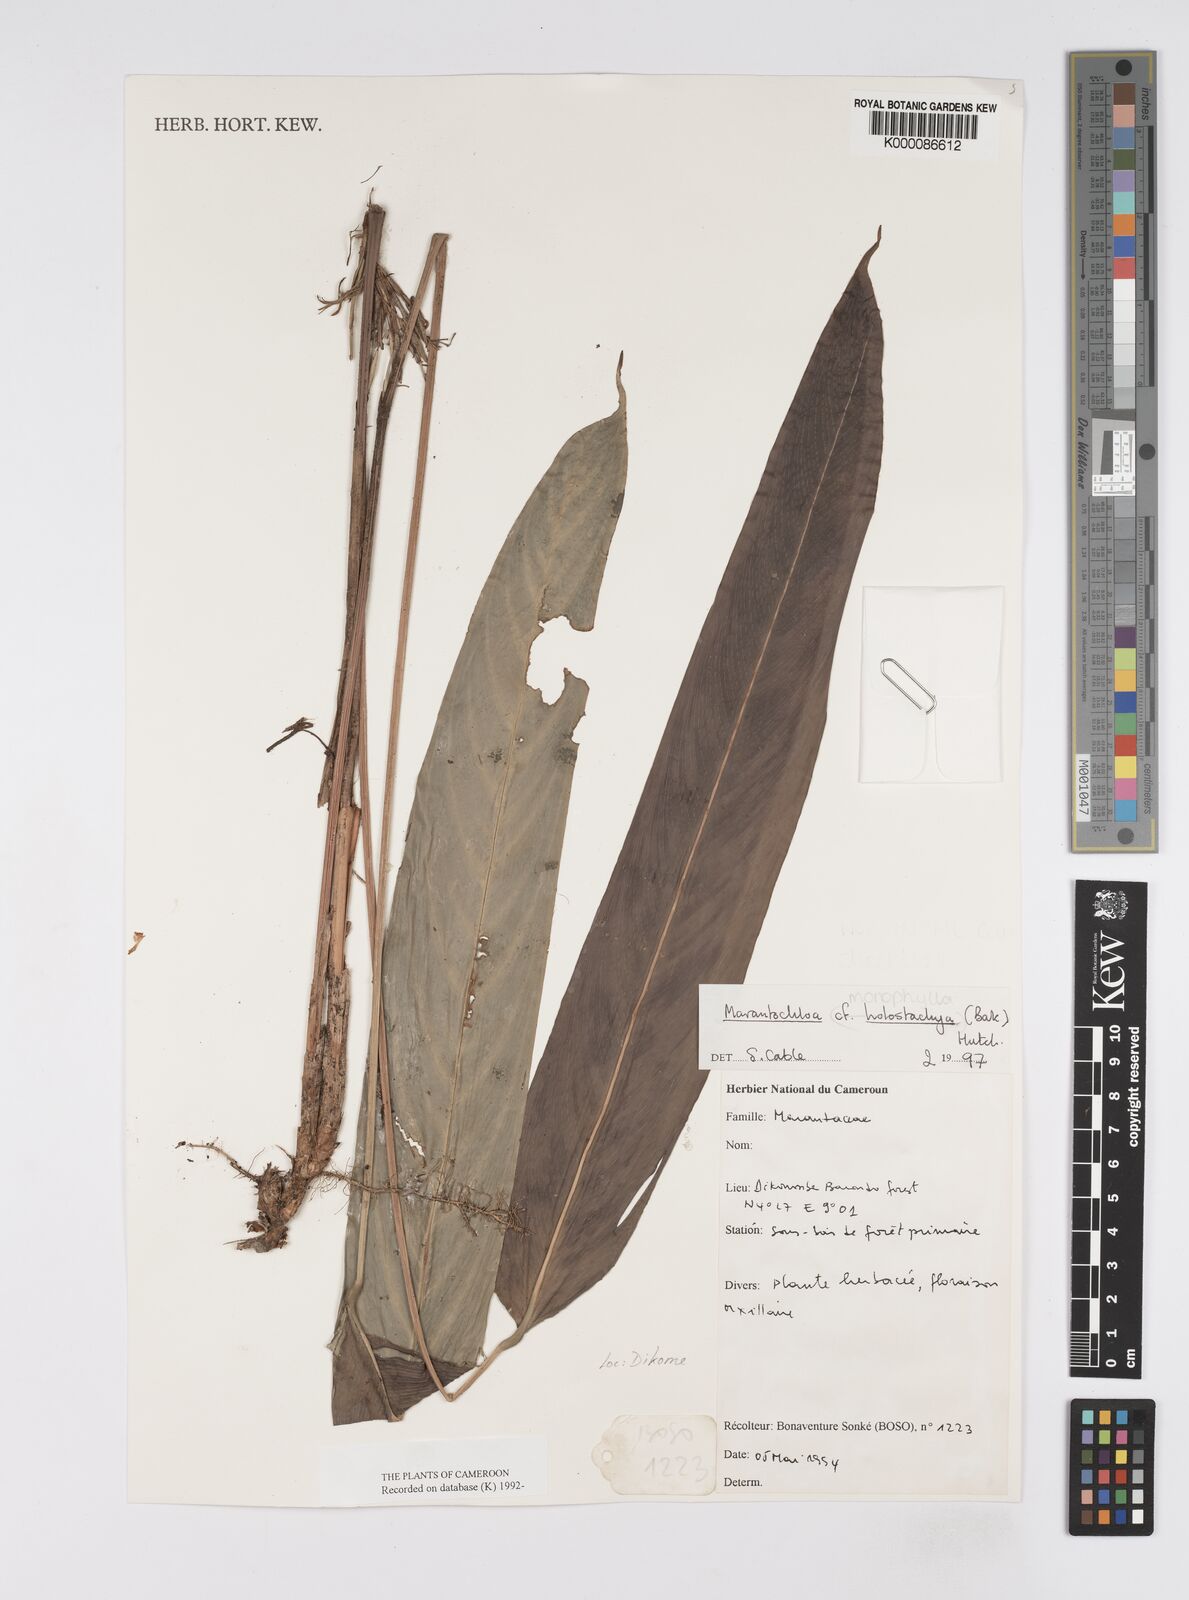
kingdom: Plantae
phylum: Tracheophyta
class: Liliopsida
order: Zingiberales
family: Marantaceae
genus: Marantochloa
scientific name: Marantochloa monophylla
